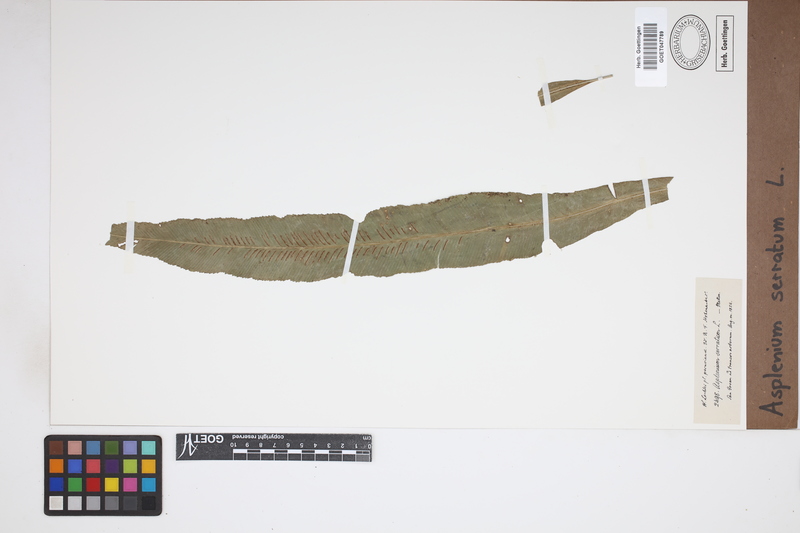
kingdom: Plantae
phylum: Tracheophyta
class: Polypodiopsida
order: Polypodiales
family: Aspleniaceae
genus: Asplenium
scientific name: Asplenium serratum
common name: Wild birdnest fern
